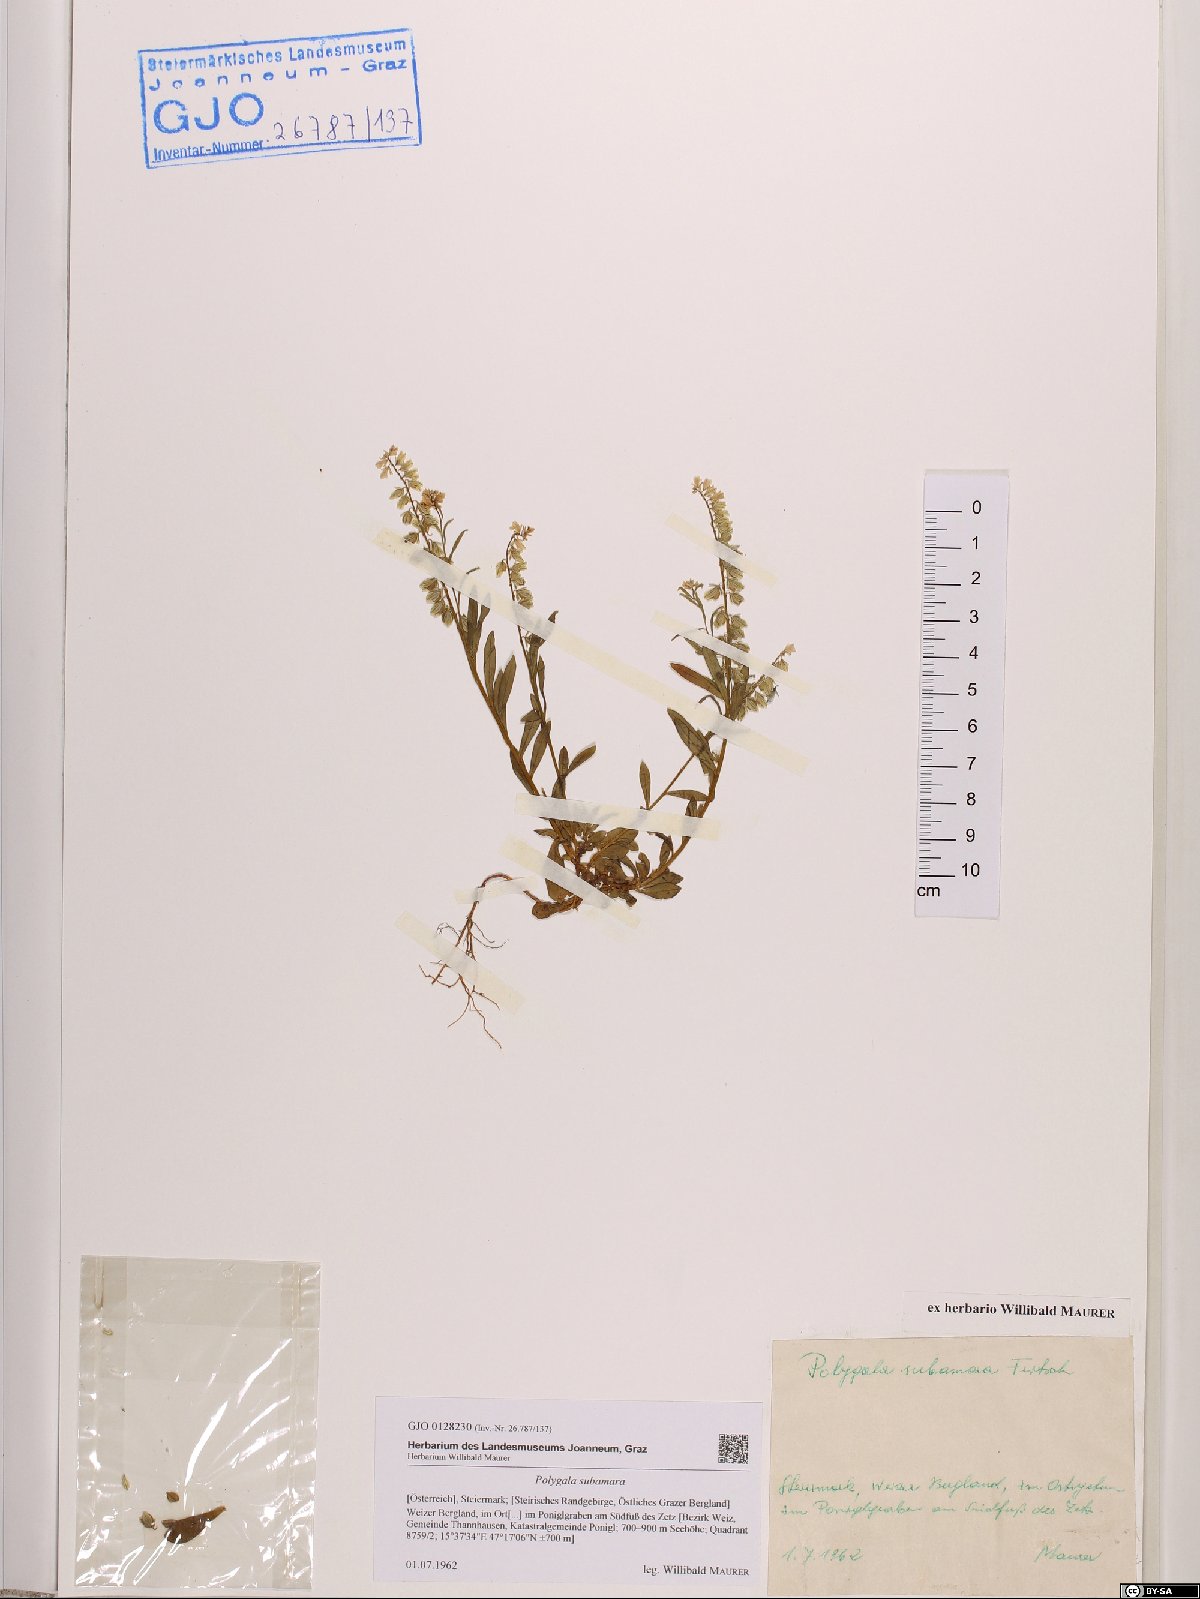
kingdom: Plantae
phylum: Tracheophyta
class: Magnoliopsida
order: Fabales
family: Polygalaceae
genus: Polygala
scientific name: Polygala amara
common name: Milkwort
